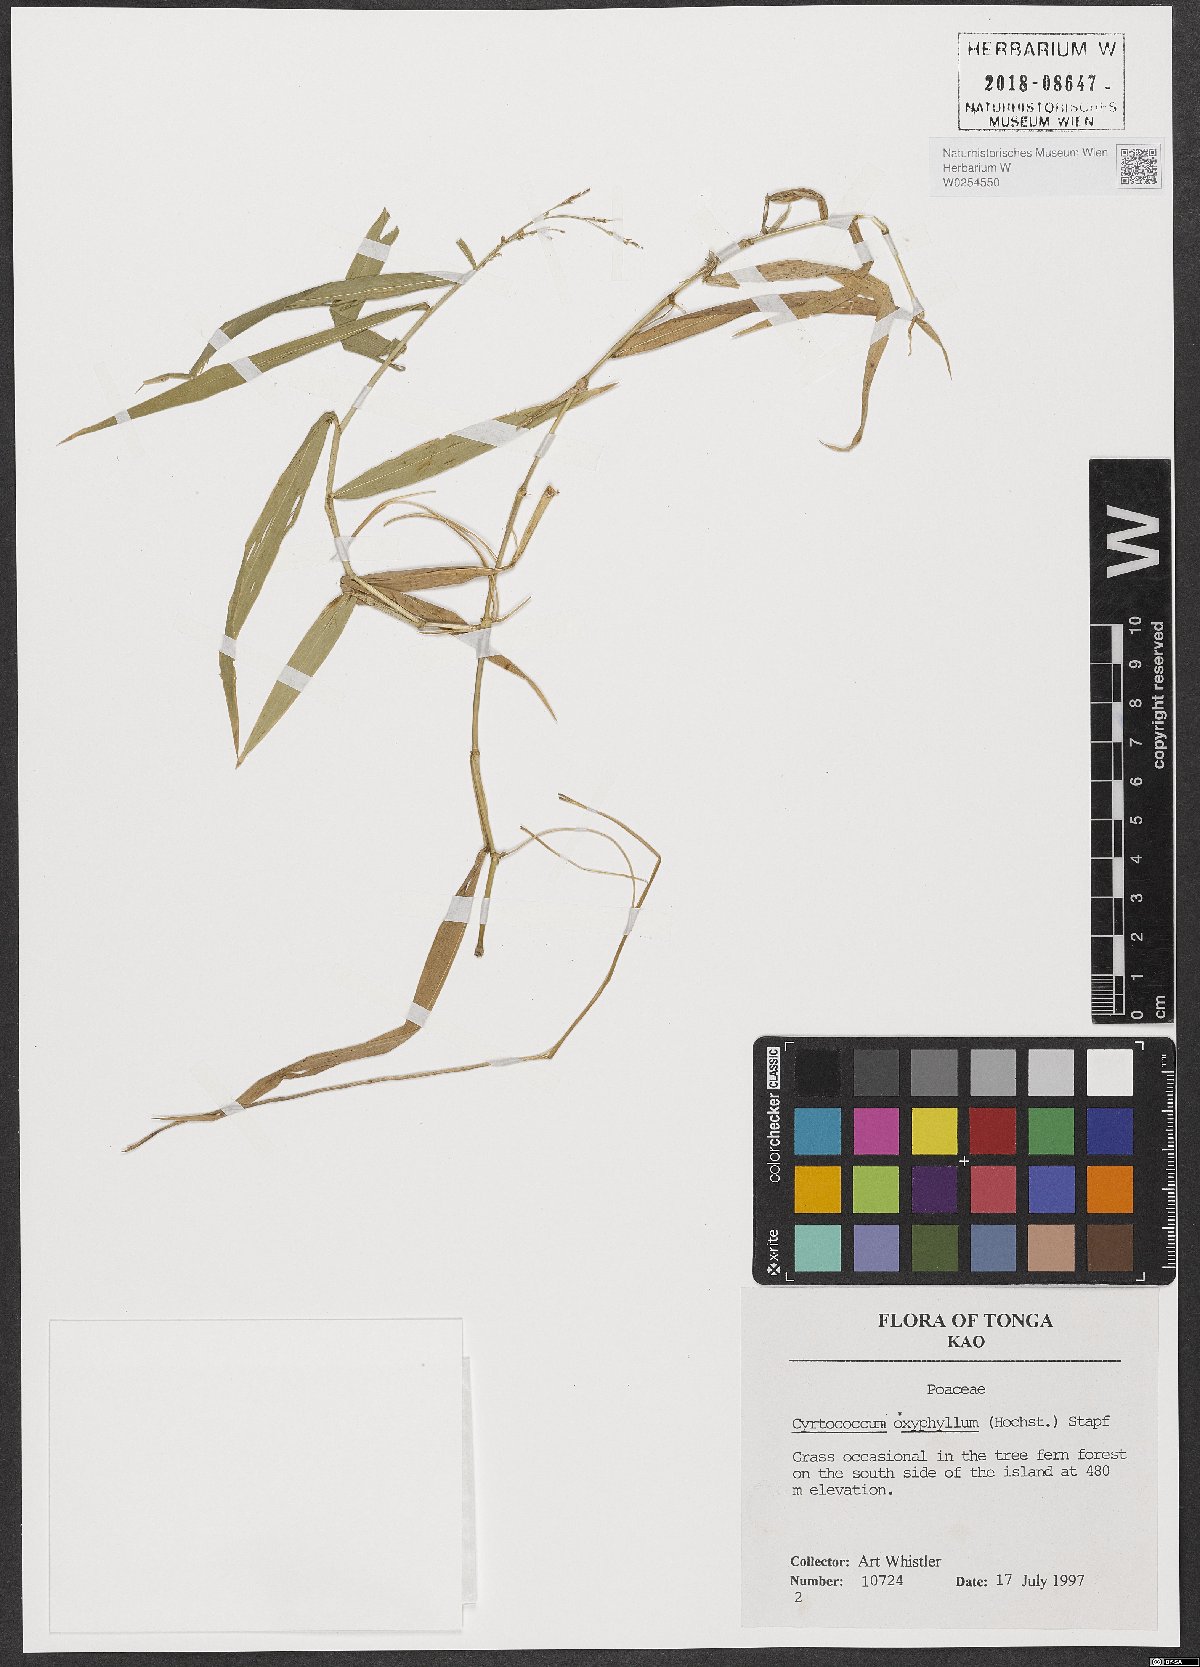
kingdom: Plantae
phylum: Tracheophyta
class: Liliopsida
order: Poales
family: Poaceae
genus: Cyrtococcum
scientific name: Cyrtococcum oxyphyllum
